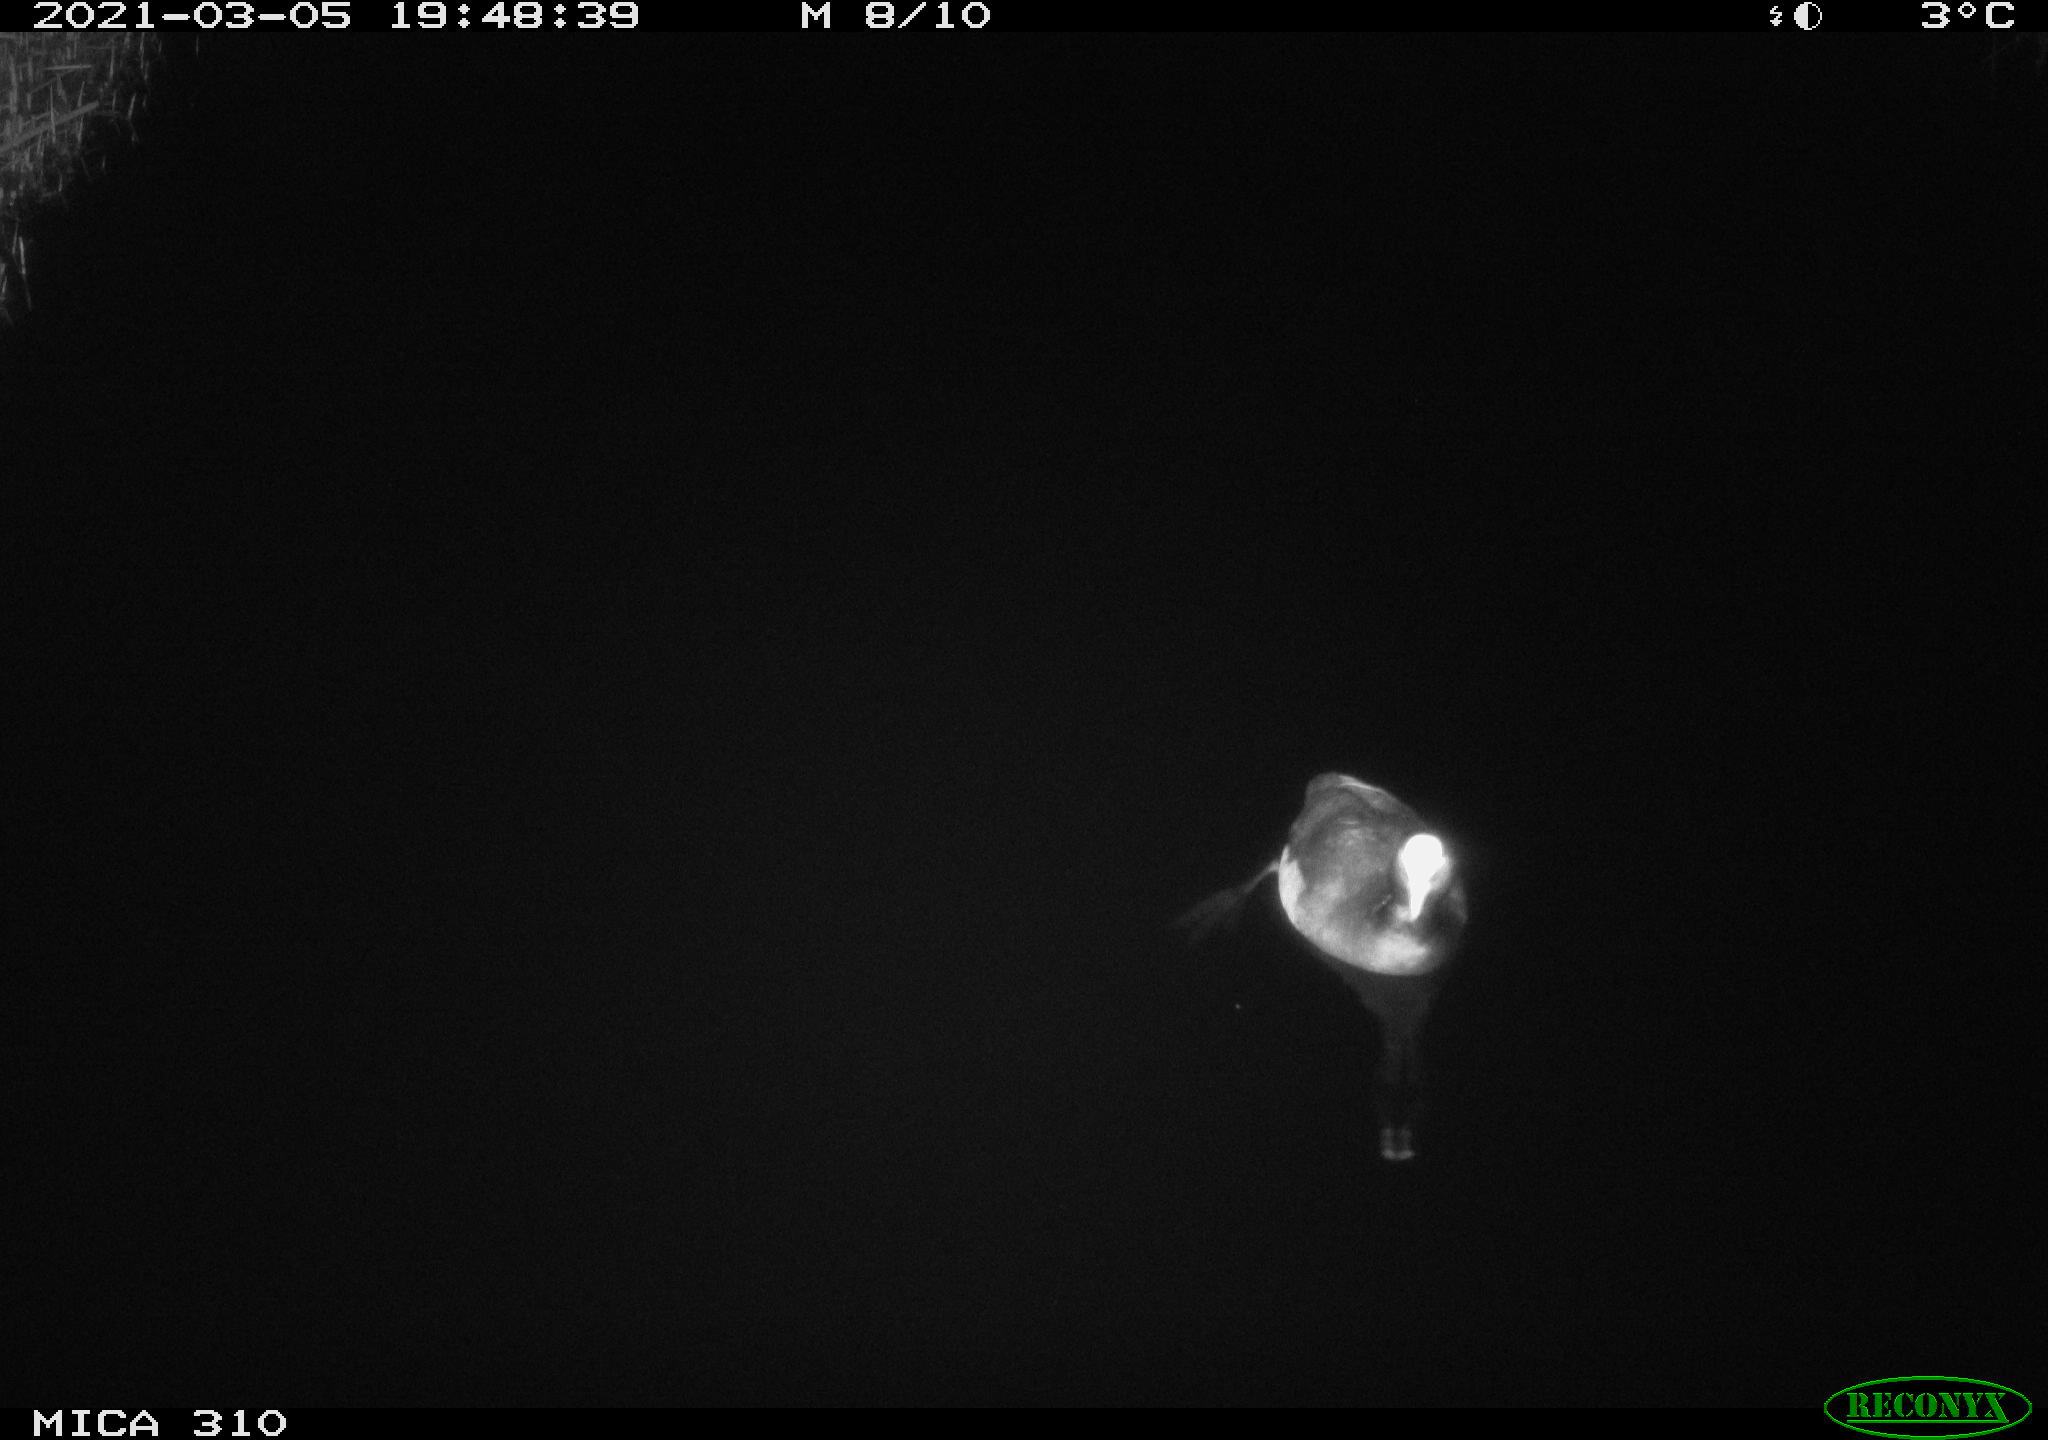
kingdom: Animalia
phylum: Chordata
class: Aves
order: Gruiformes
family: Rallidae
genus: Fulica
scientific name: Fulica atra
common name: Eurasian coot
